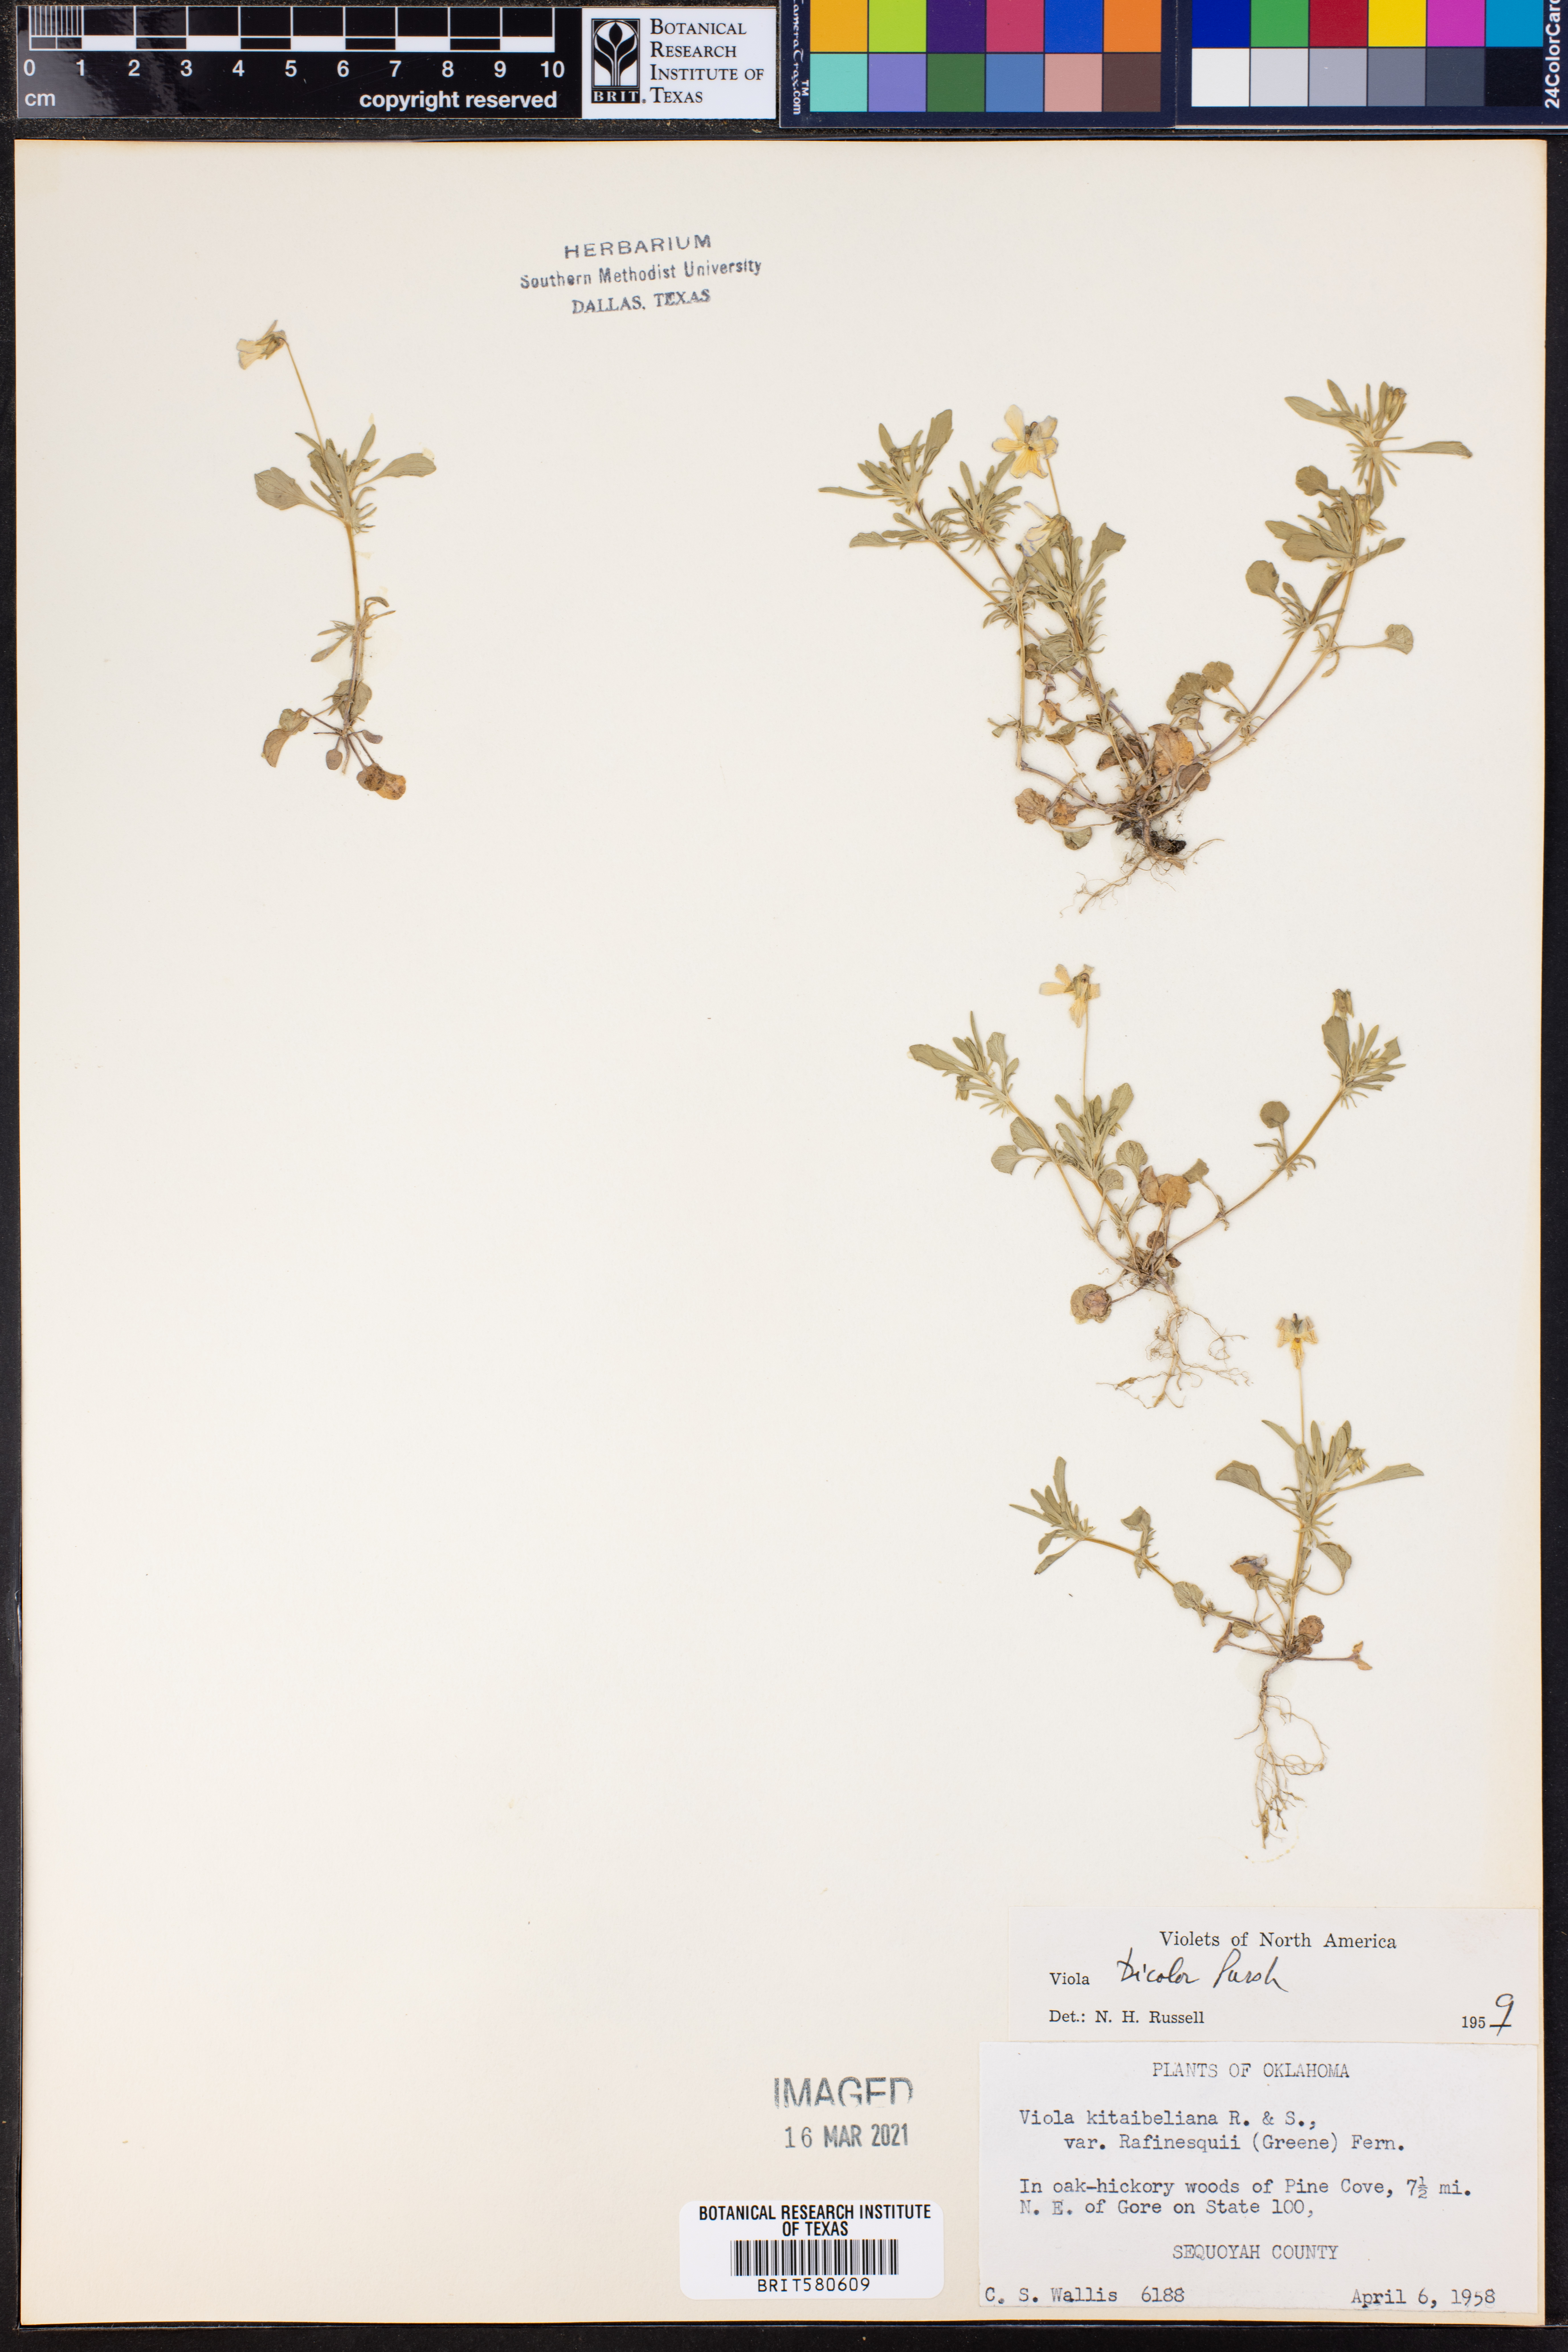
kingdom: Plantae
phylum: Tracheophyta
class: Magnoliopsida
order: Malpighiales
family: Violaceae
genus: Viola
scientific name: Viola rafinesquei
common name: American field pansy
